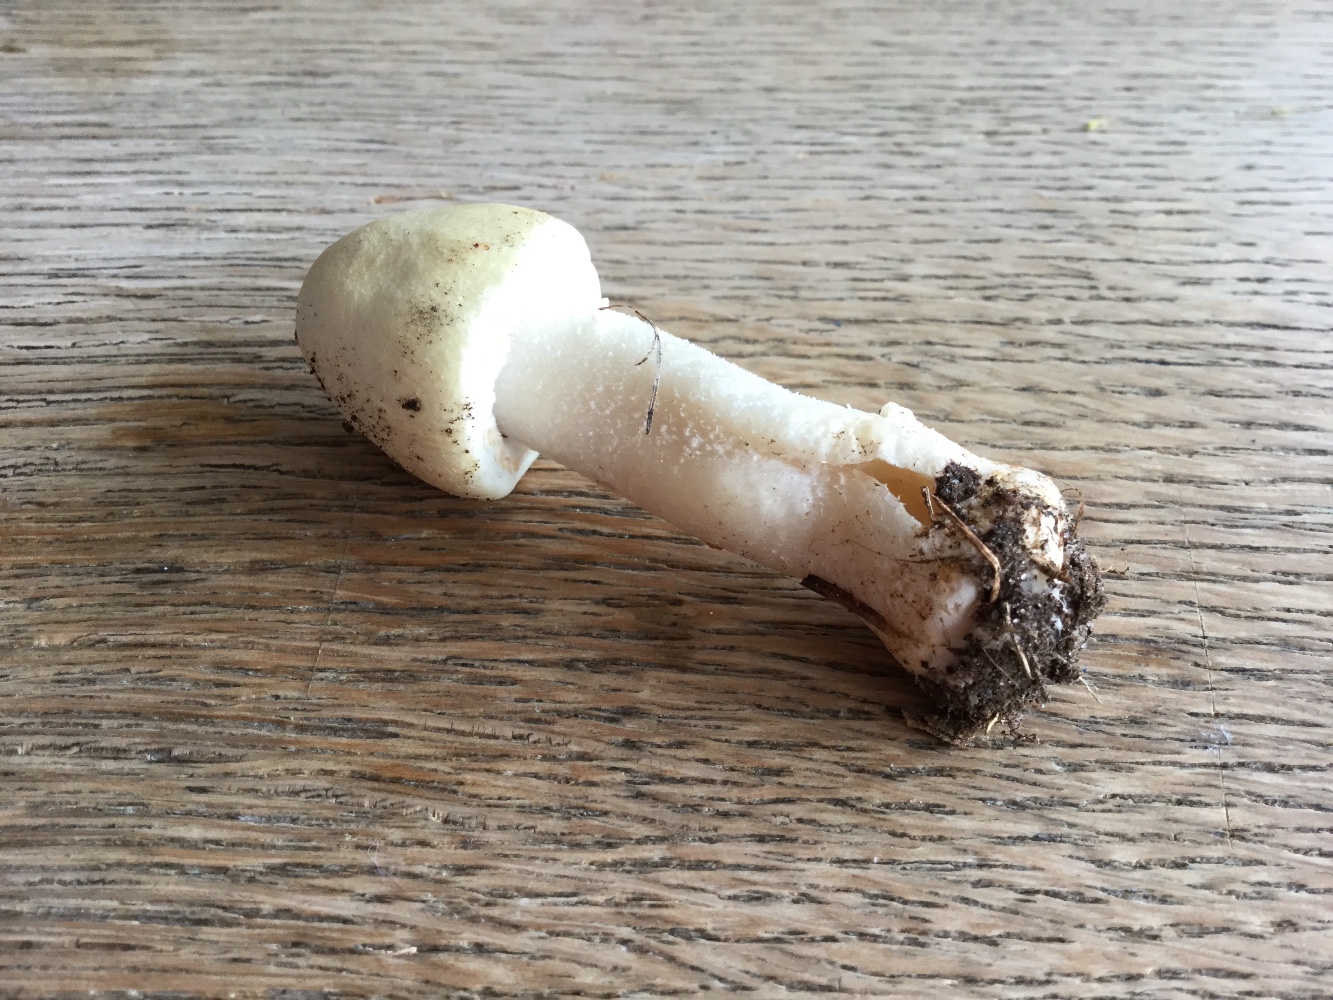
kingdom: Fungi
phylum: Basidiomycota
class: Agaricomycetes
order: Agaricales
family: Agaricaceae
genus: Agaricus
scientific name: Agaricus sylvicola
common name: gulhvid champignon
